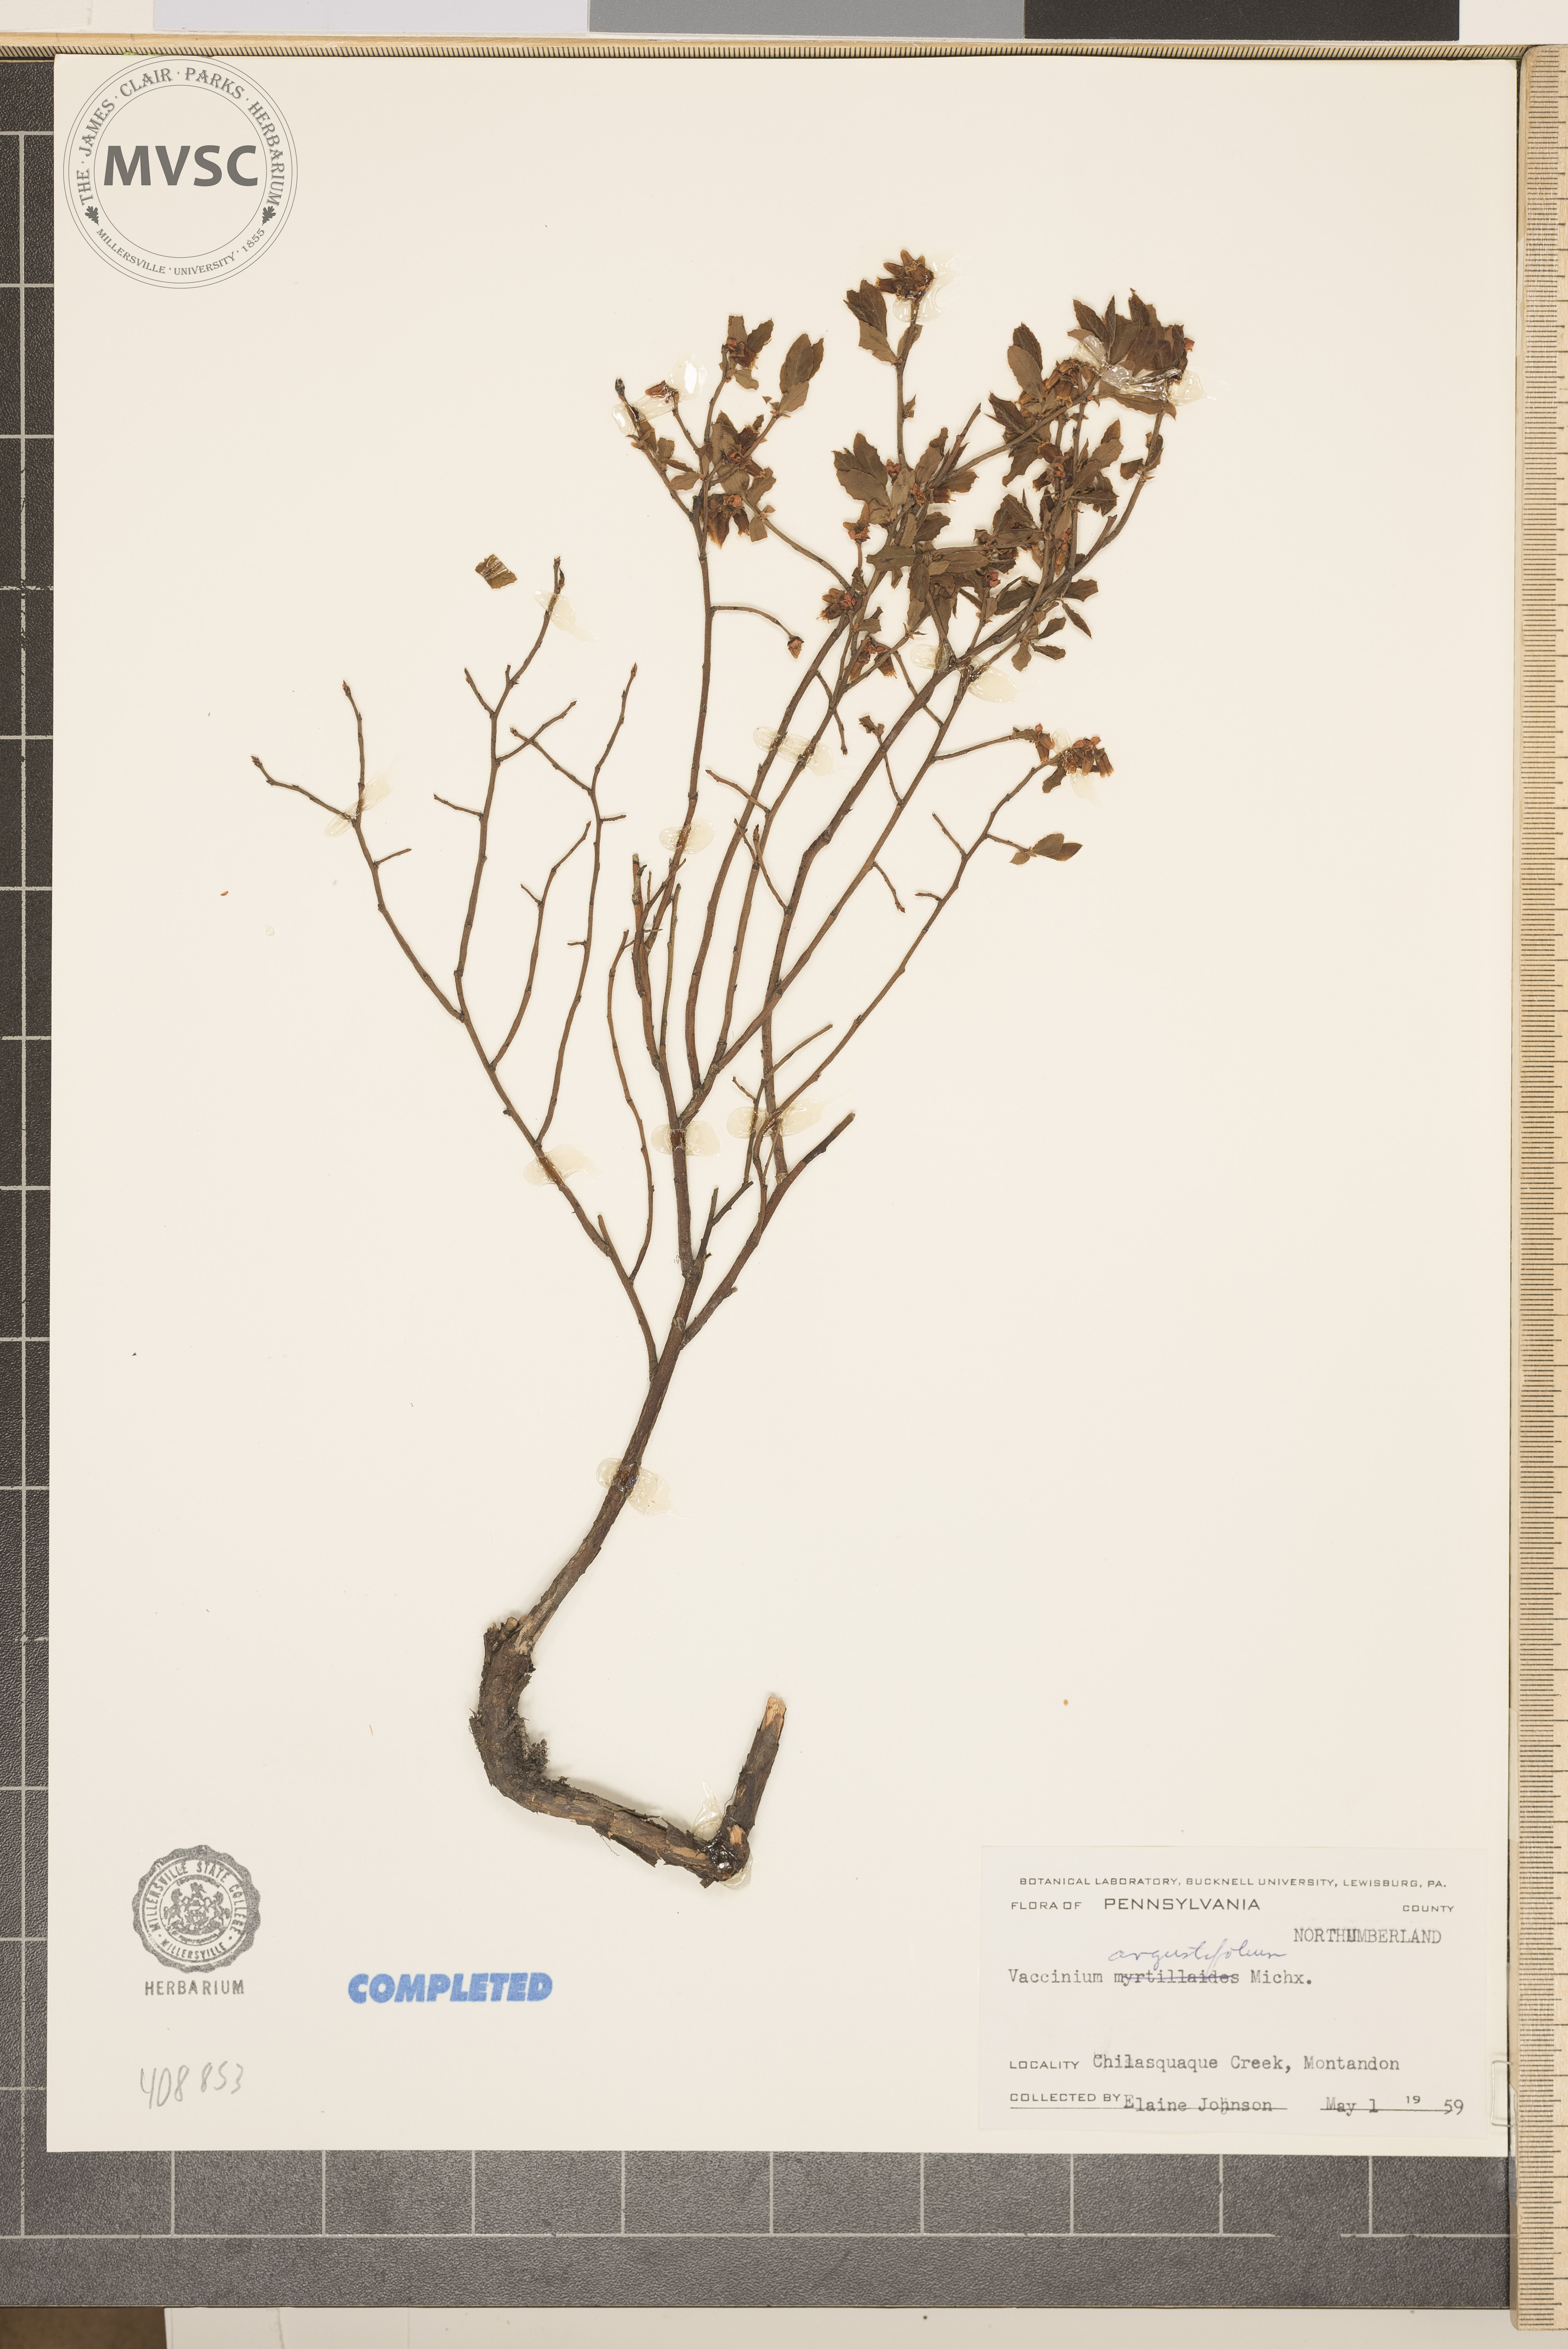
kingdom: Plantae
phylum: Tracheophyta
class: Magnoliopsida
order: Ericales
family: Ericaceae
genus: Vaccinium
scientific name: Vaccinium angustifolium
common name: Early lowbush blueberry
